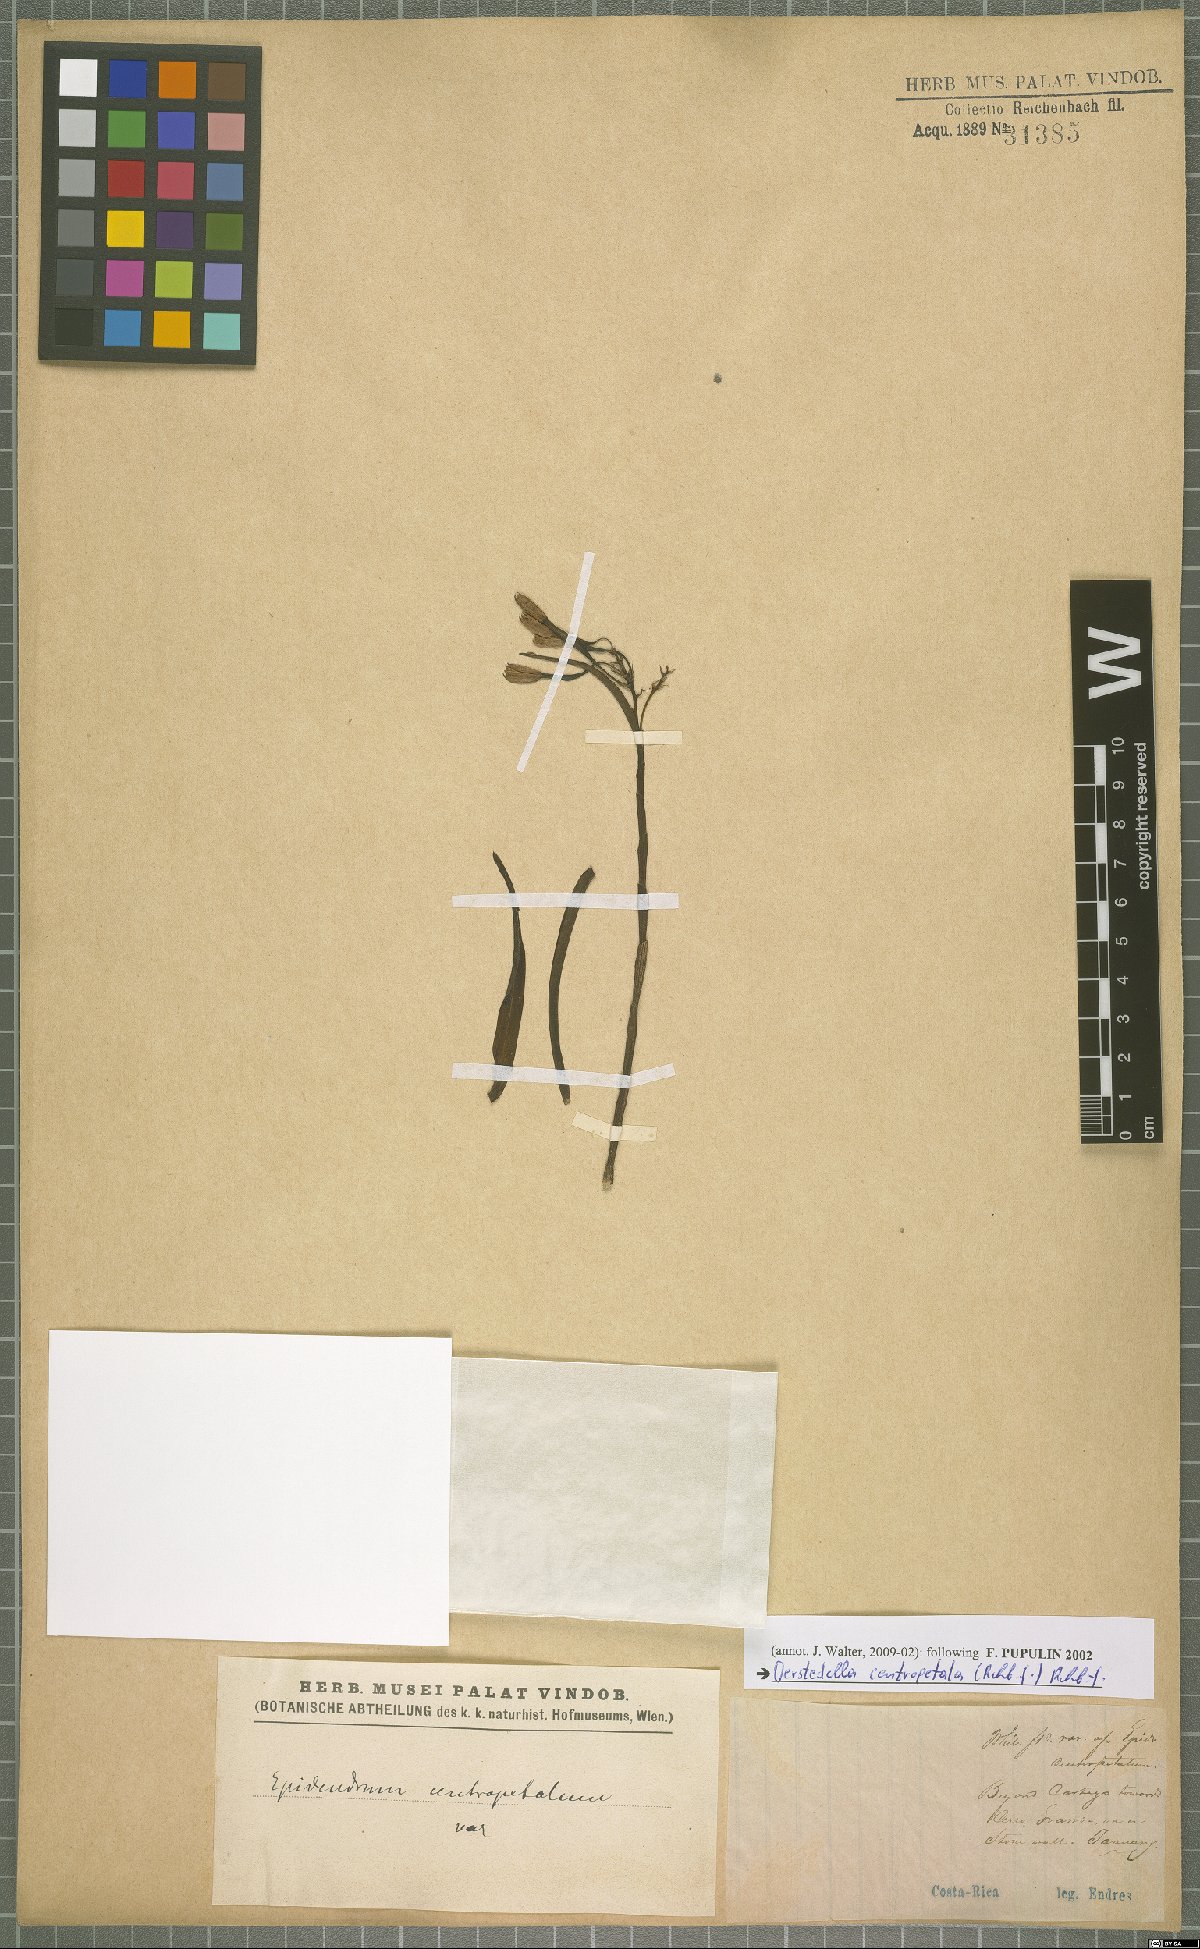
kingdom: Plantae
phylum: Tracheophyta
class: Liliopsida
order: Asparagales
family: Orchidaceae
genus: Epidendrum
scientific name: Epidendrum centropetalum
